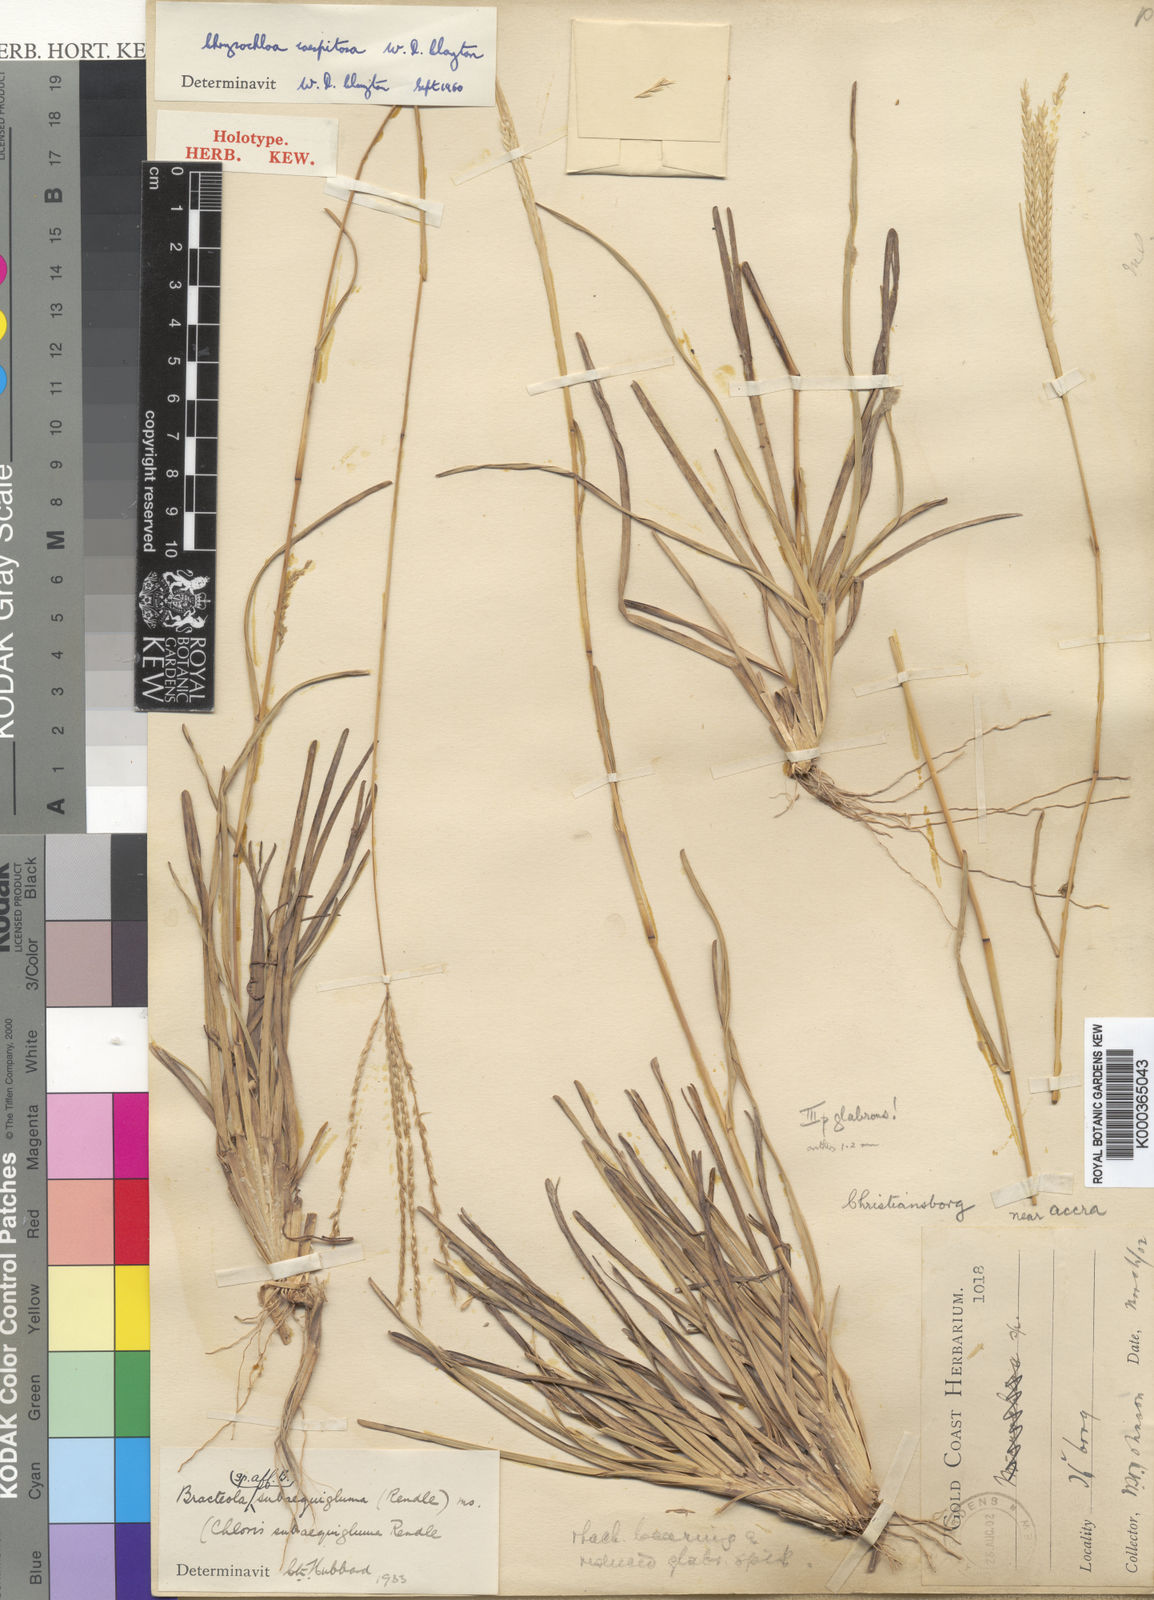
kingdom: Plantae
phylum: Tracheophyta
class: Liliopsida
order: Poales
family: Poaceae
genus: Chrysochloa
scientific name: Chrysochloa hindsii
